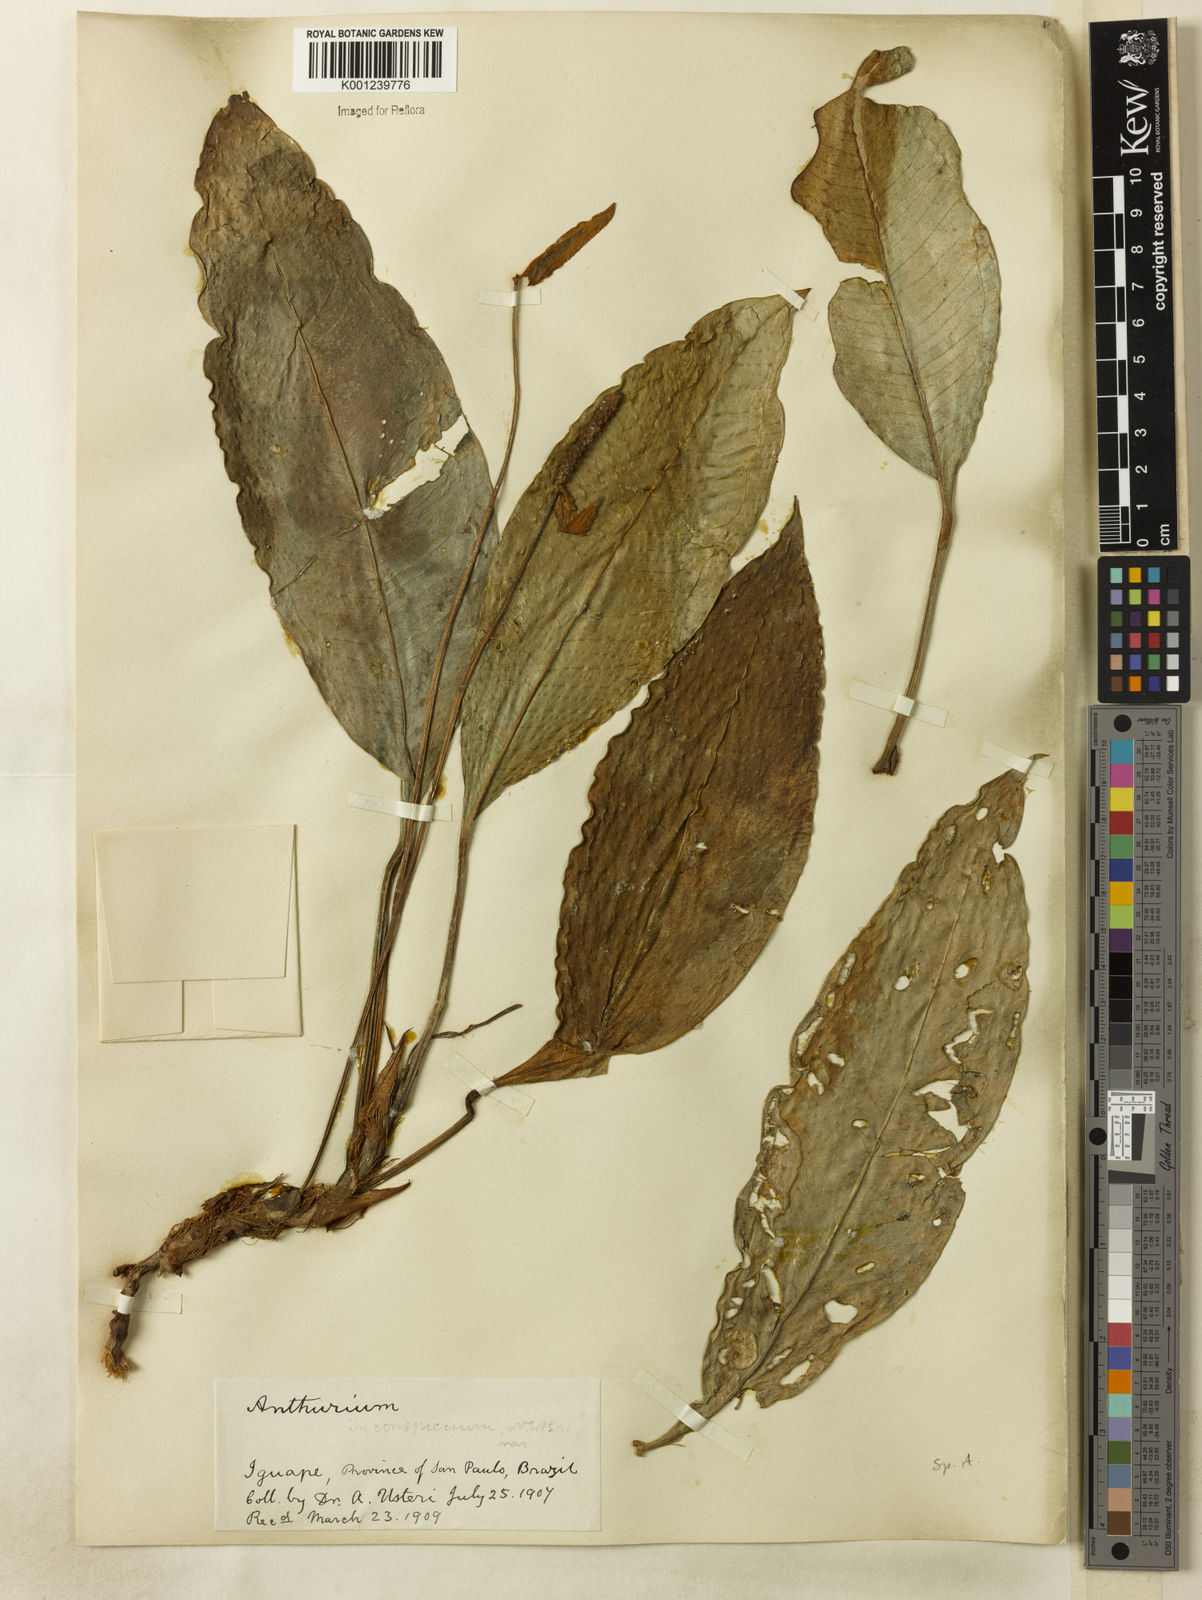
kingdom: Plantae
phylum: Tracheophyta
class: Liliopsida
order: Alismatales
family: Araceae
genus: Anthurium
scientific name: Anthurium
